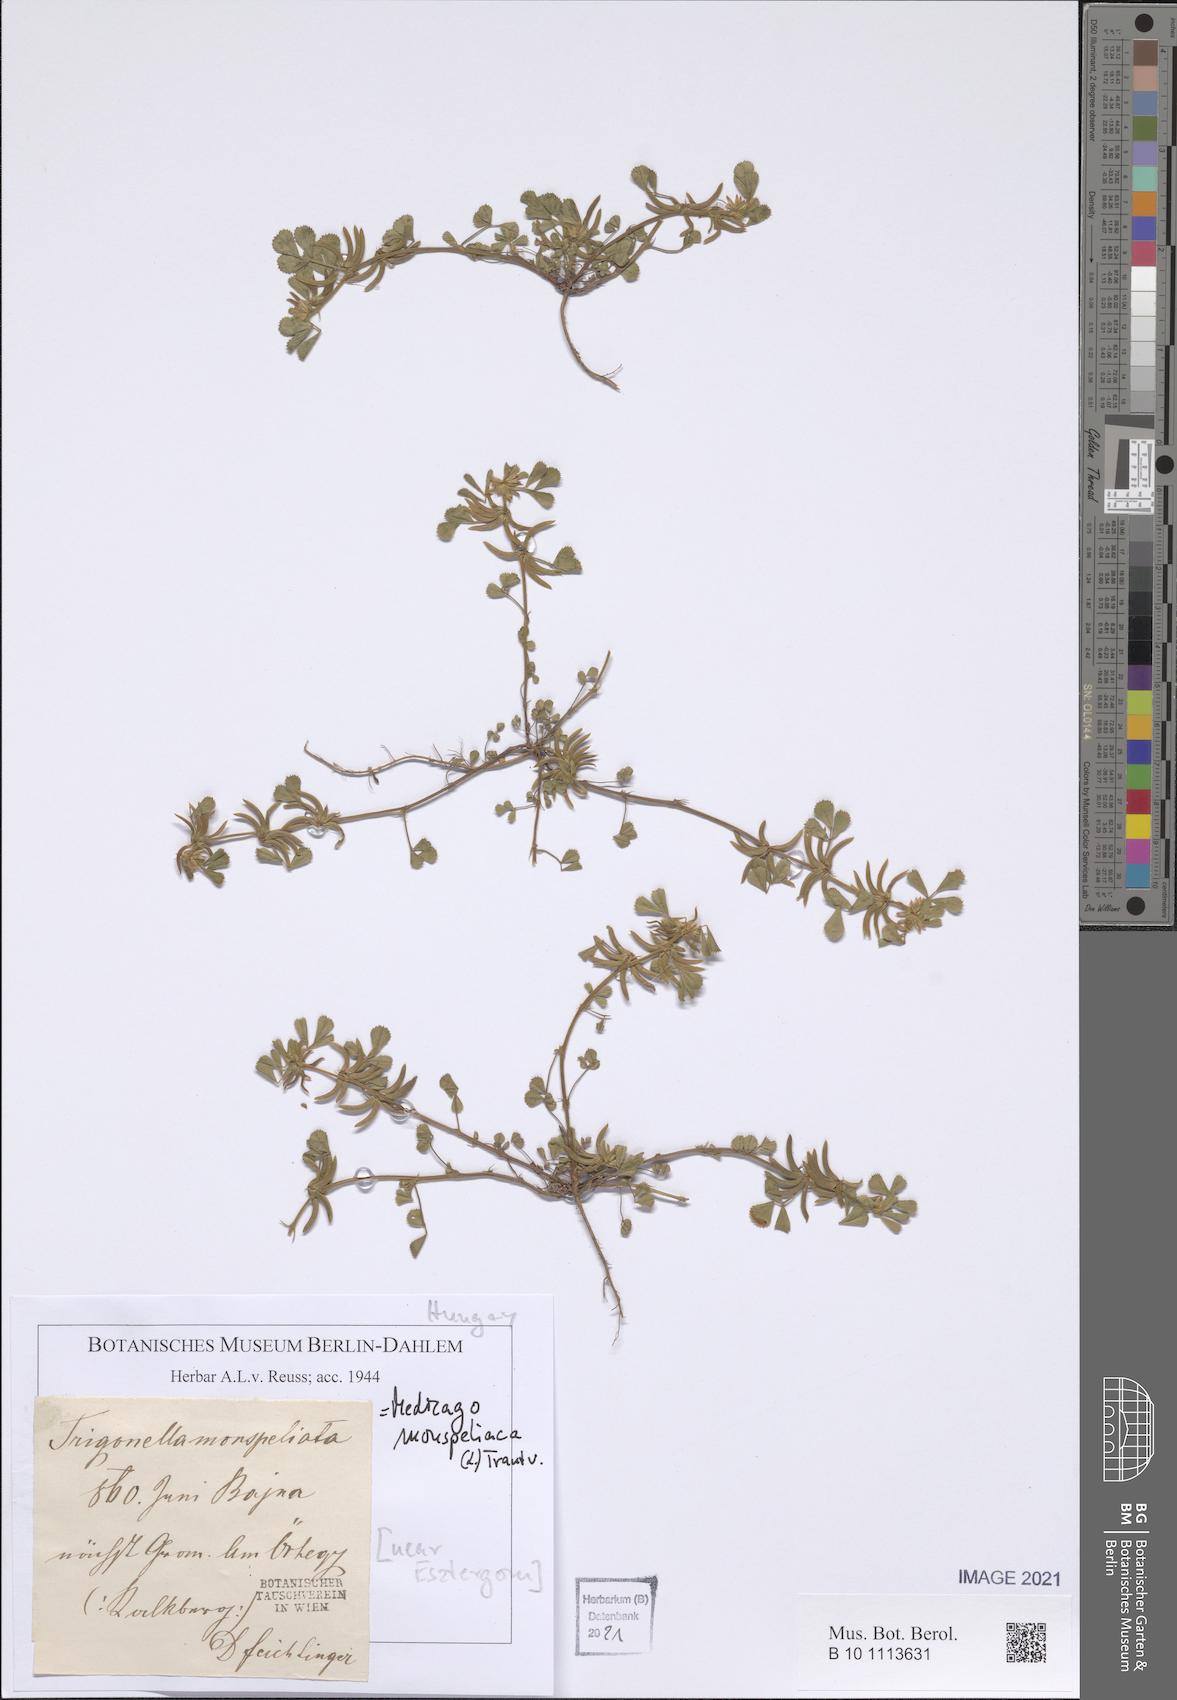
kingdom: Plantae
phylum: Tracheophyta
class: Magnoliopsida
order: Fabales
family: Fabaceae
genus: Medicago
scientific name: Medicago monspeliaca
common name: Hairy medick
